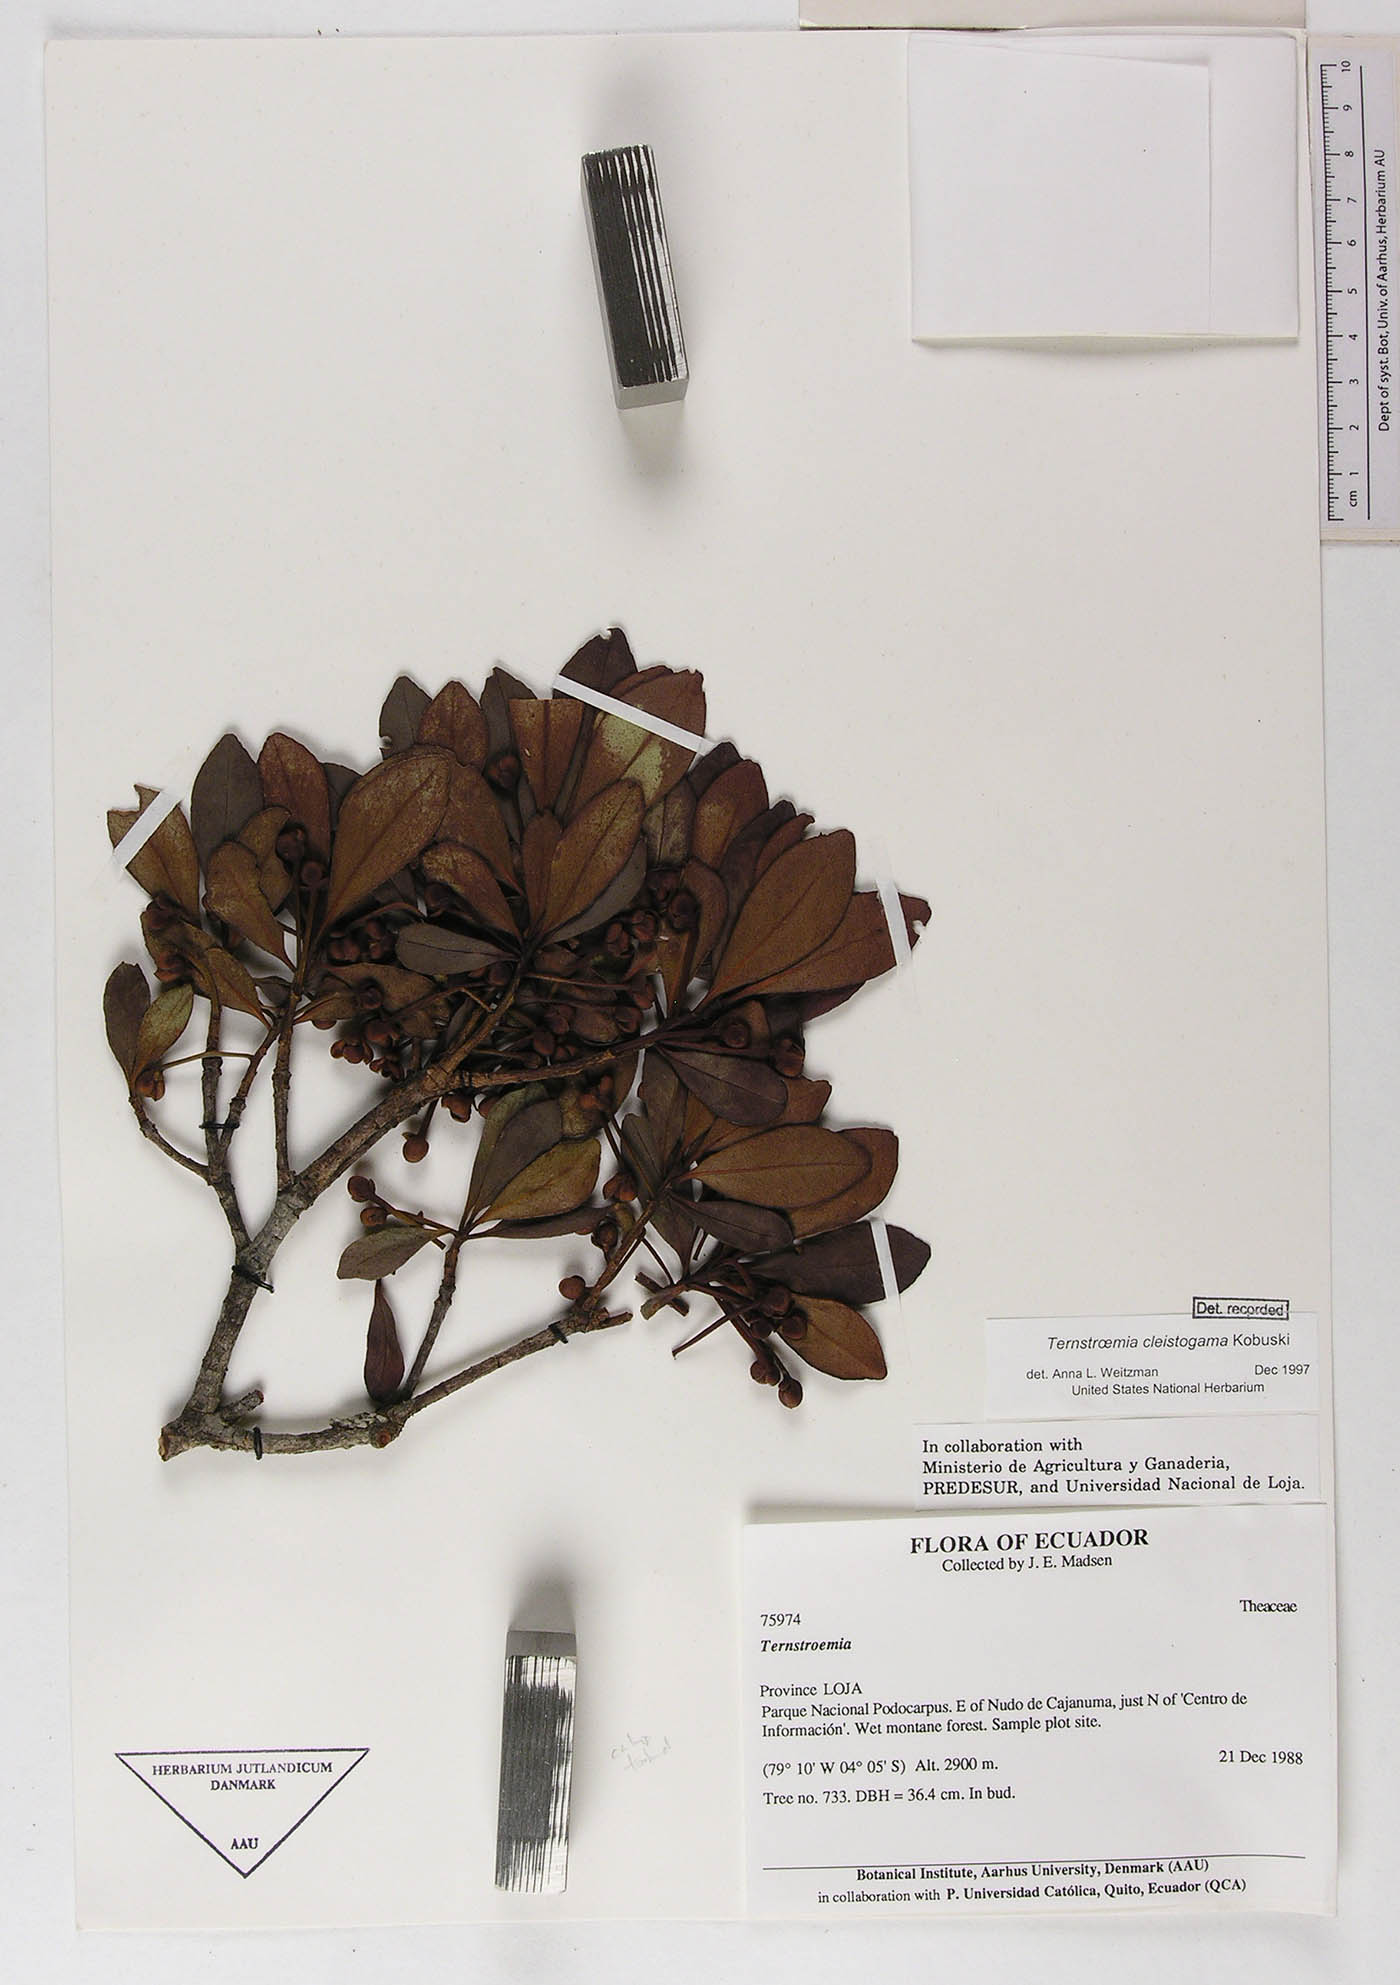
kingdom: Plantae
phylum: Tracheophyta
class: Magnoliopsida
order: Ericales
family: Pentaphylacaceae
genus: Ternstroemia
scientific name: Ternstroemia cleistogama
